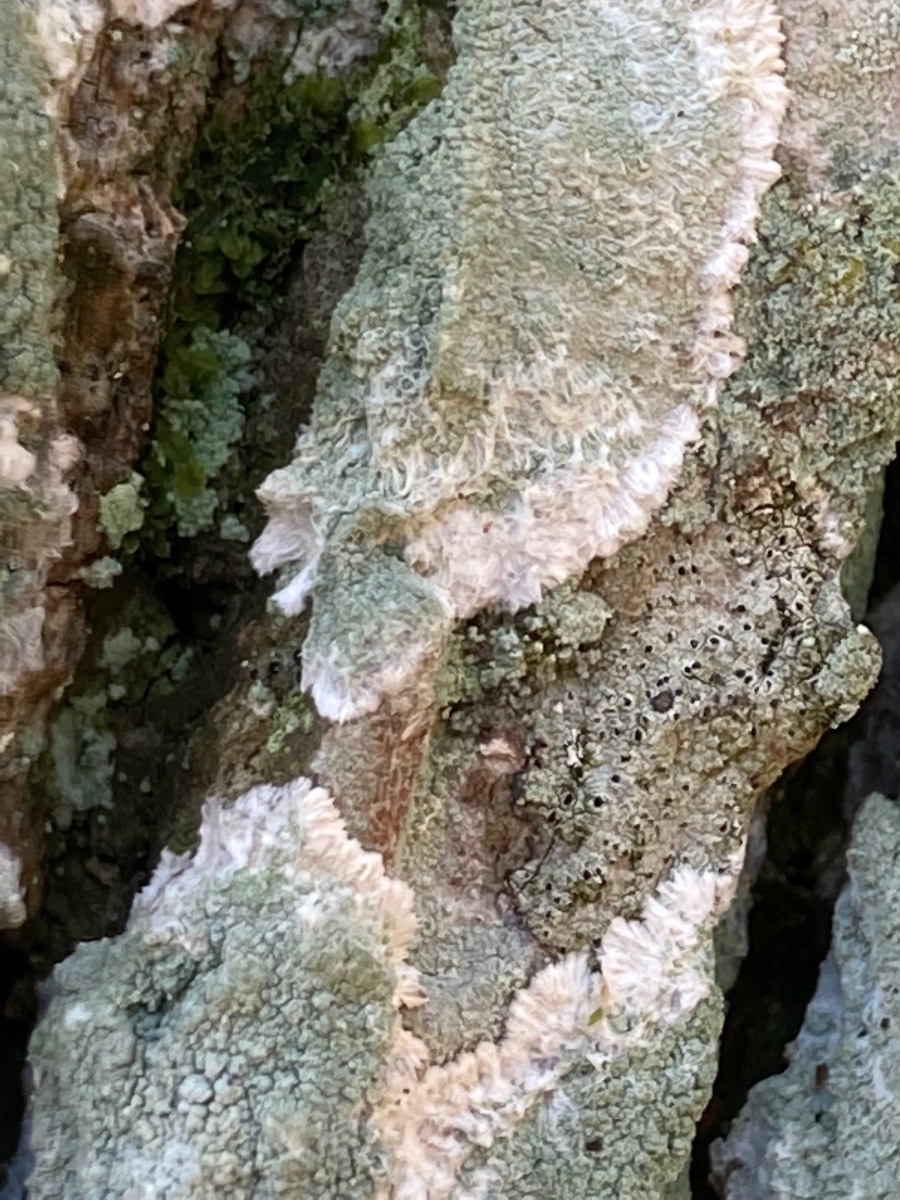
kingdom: Fungi
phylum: Ascomycota
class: Lecanoromycetes
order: Lecanorales
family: Haematommataceae
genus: Haematomma
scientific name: Haematomma ochroleucum
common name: gul trådkantlav
